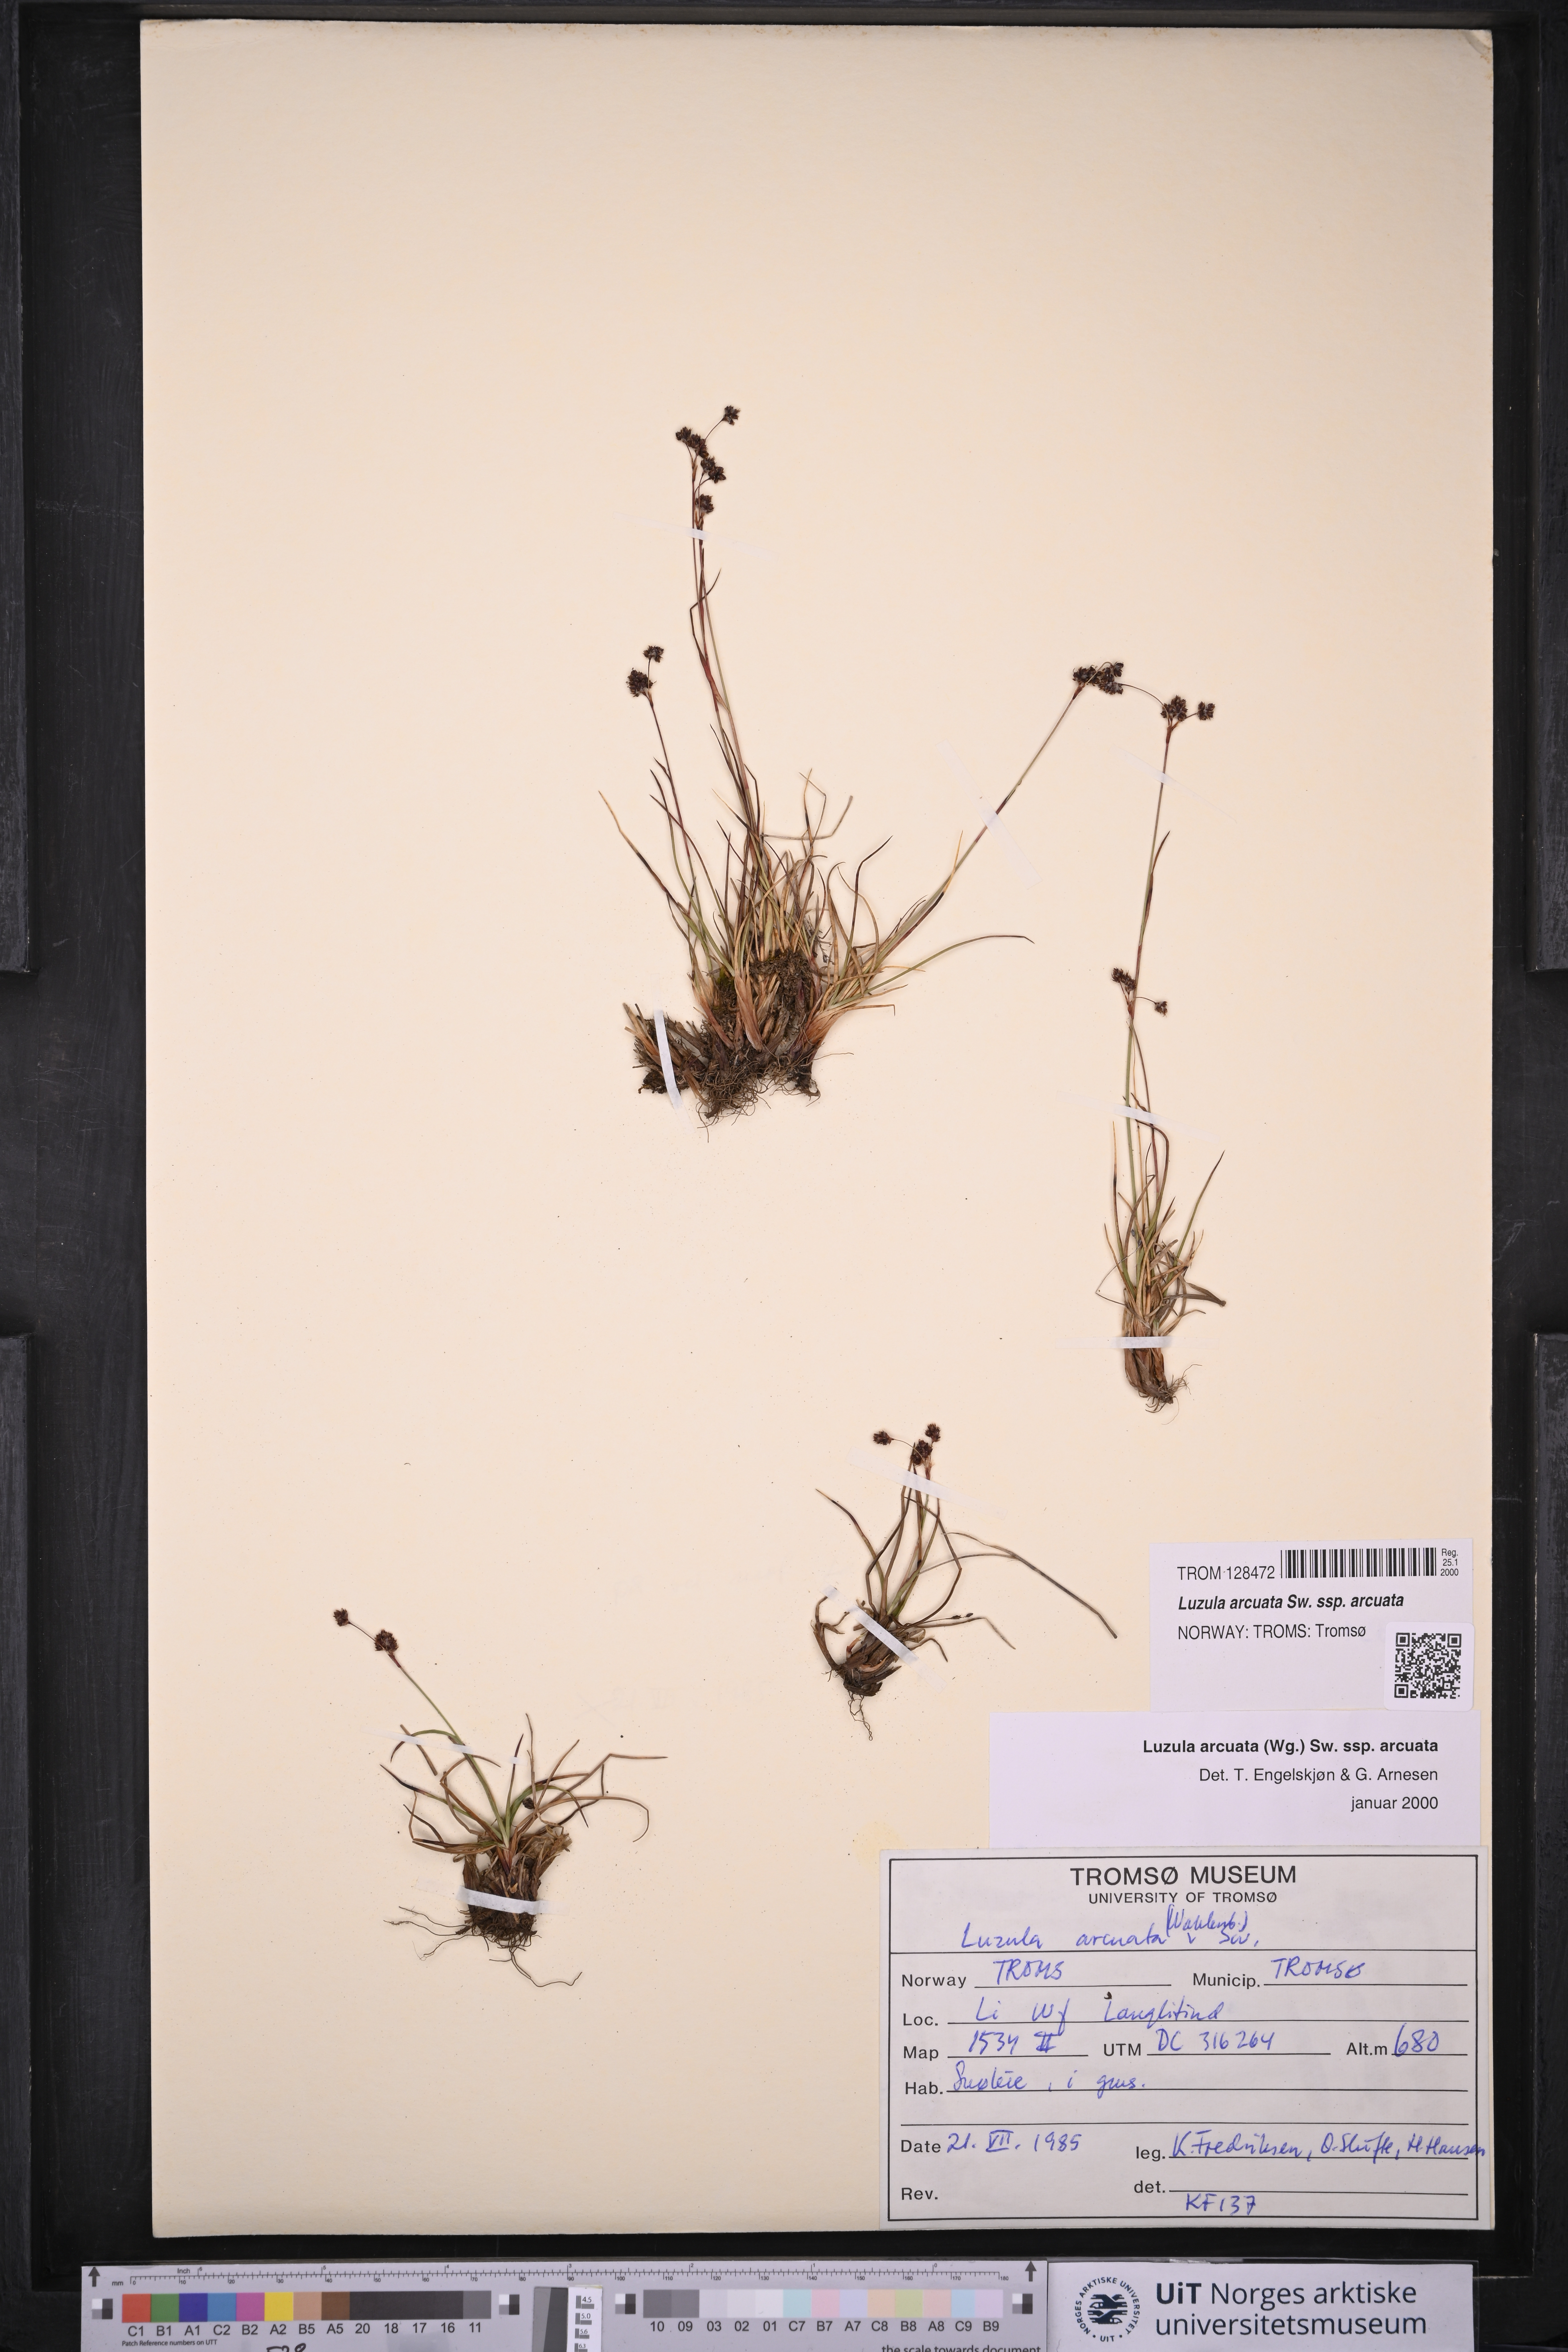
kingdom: Plantae
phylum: Tracheophyta
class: Liliopsida
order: Poales
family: Juncaceae
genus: Luzula
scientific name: Luzula arcuata
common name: Curved wood-rush
